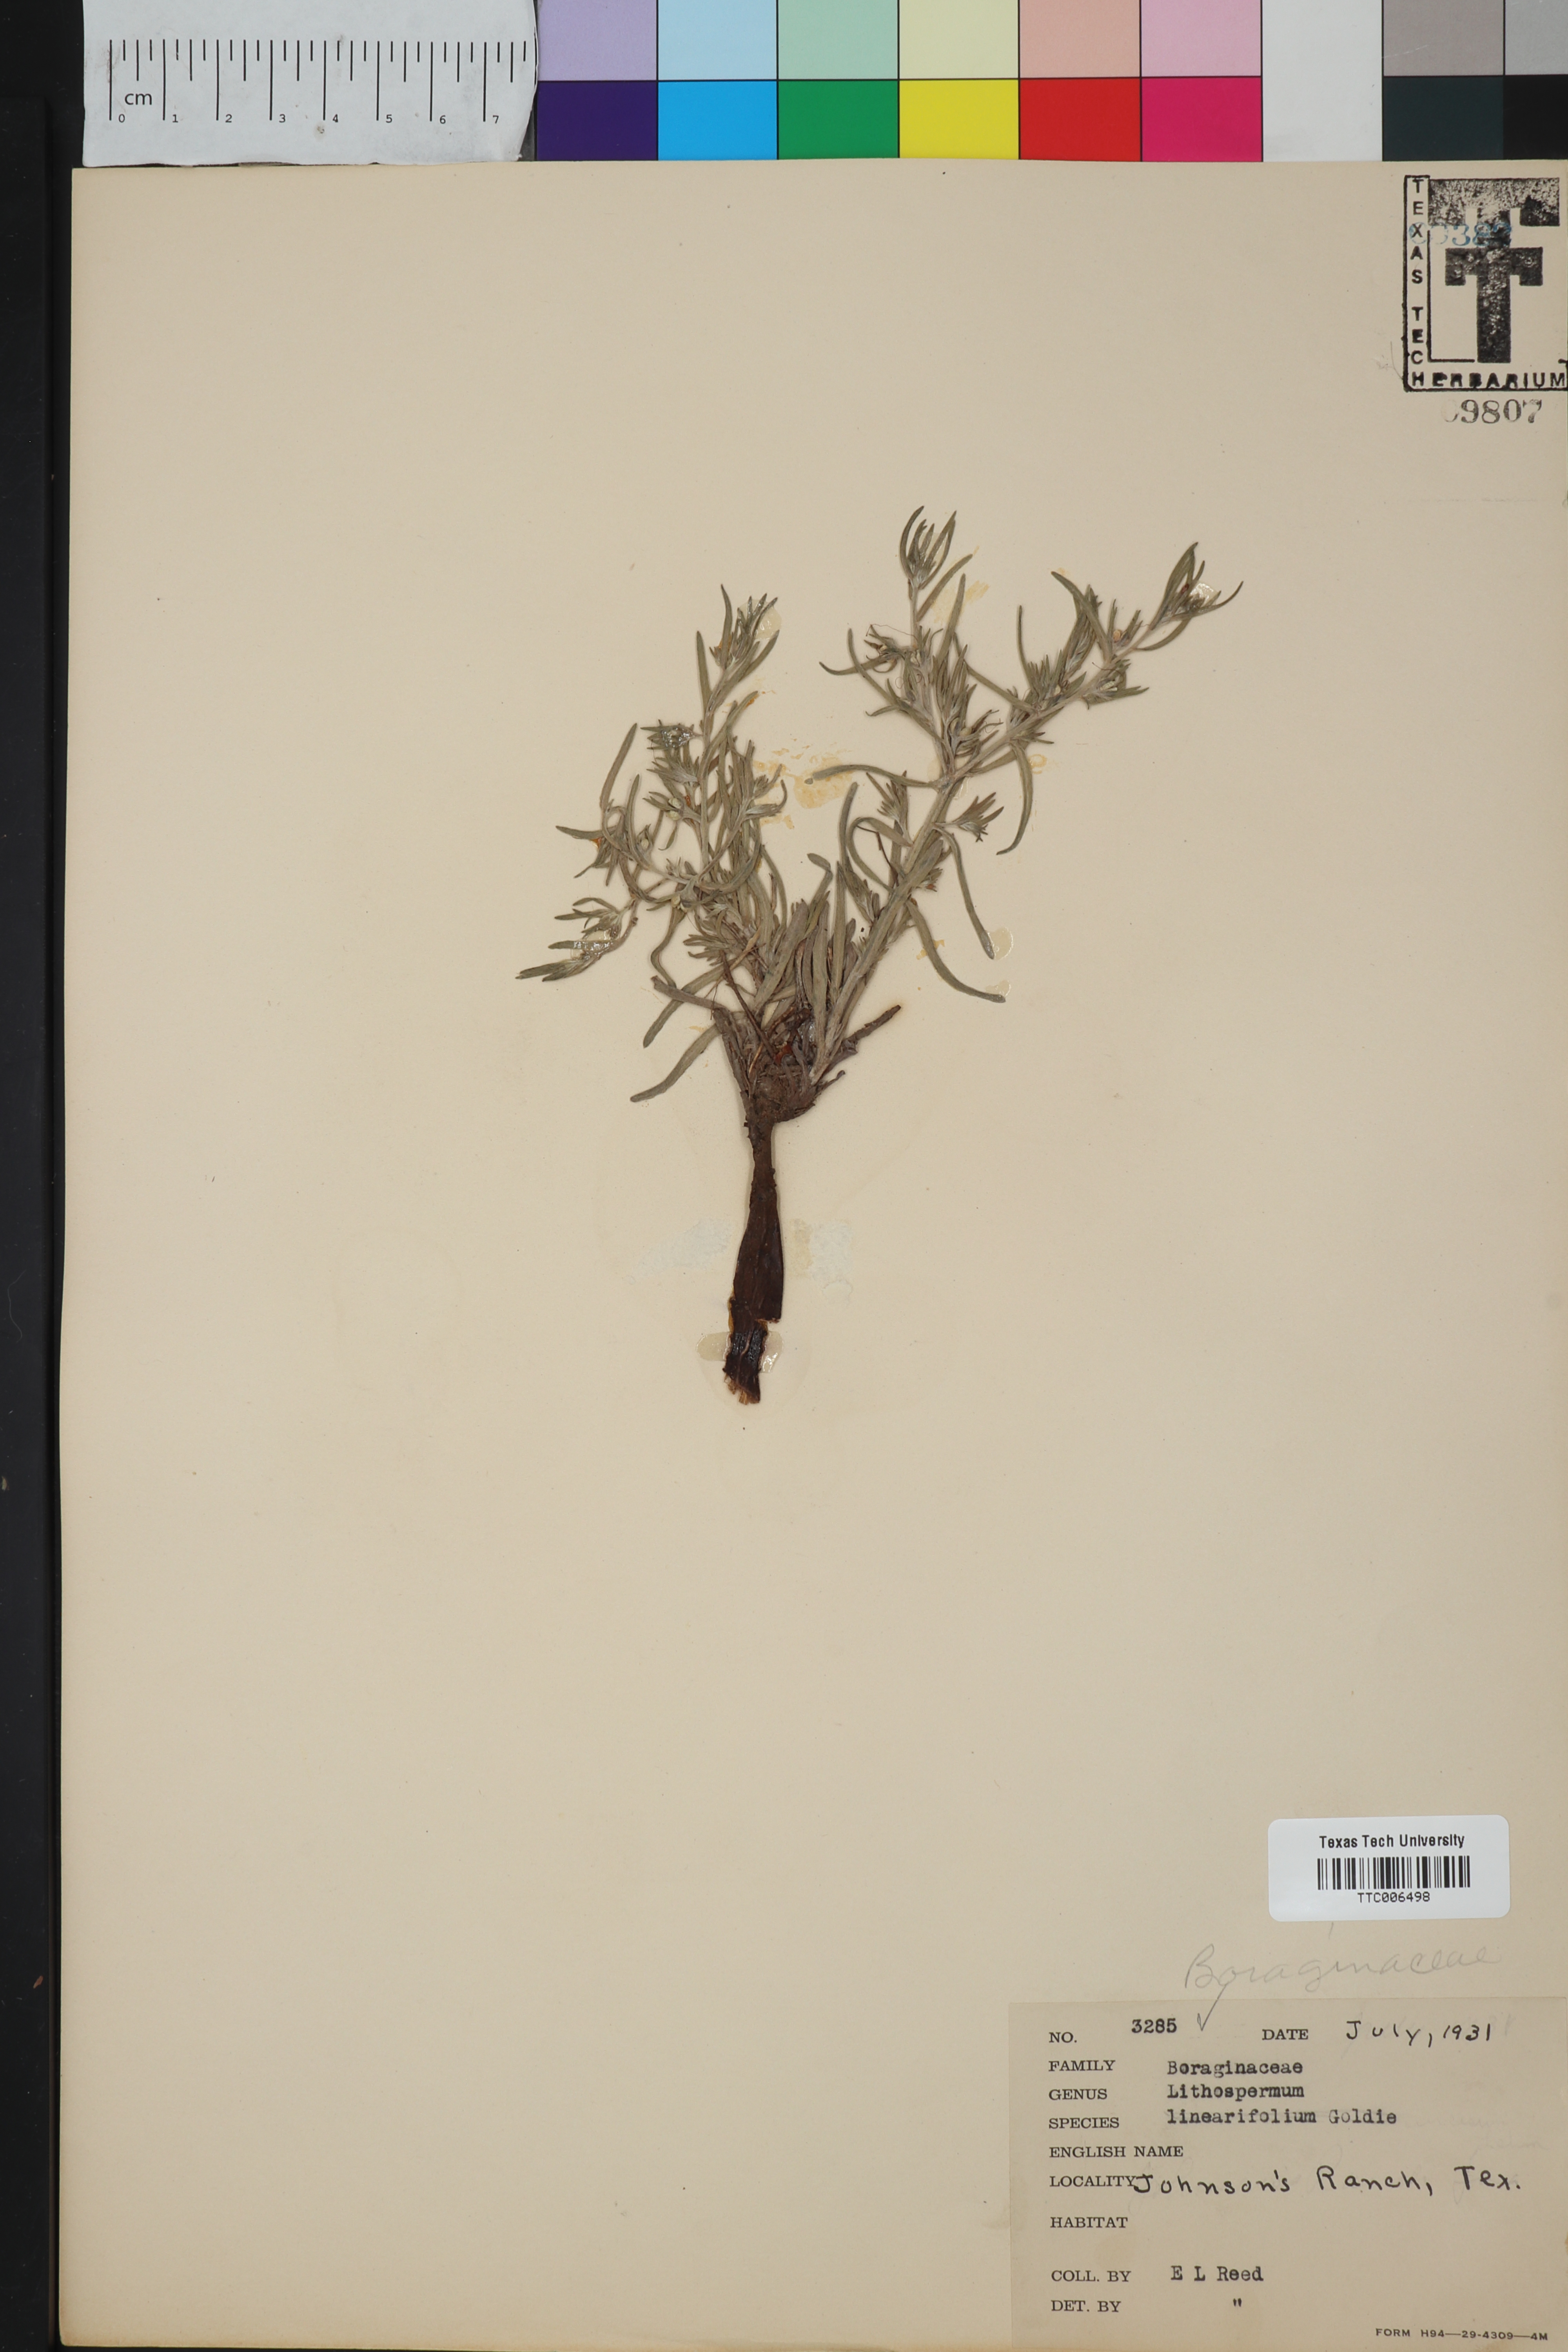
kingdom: Plantae
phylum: Tracheophyta
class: Magnoliopsida
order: Boraginales
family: Boraginaceae
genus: Lithospermum
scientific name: Lithospermum incisum
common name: Fringed gromwell
